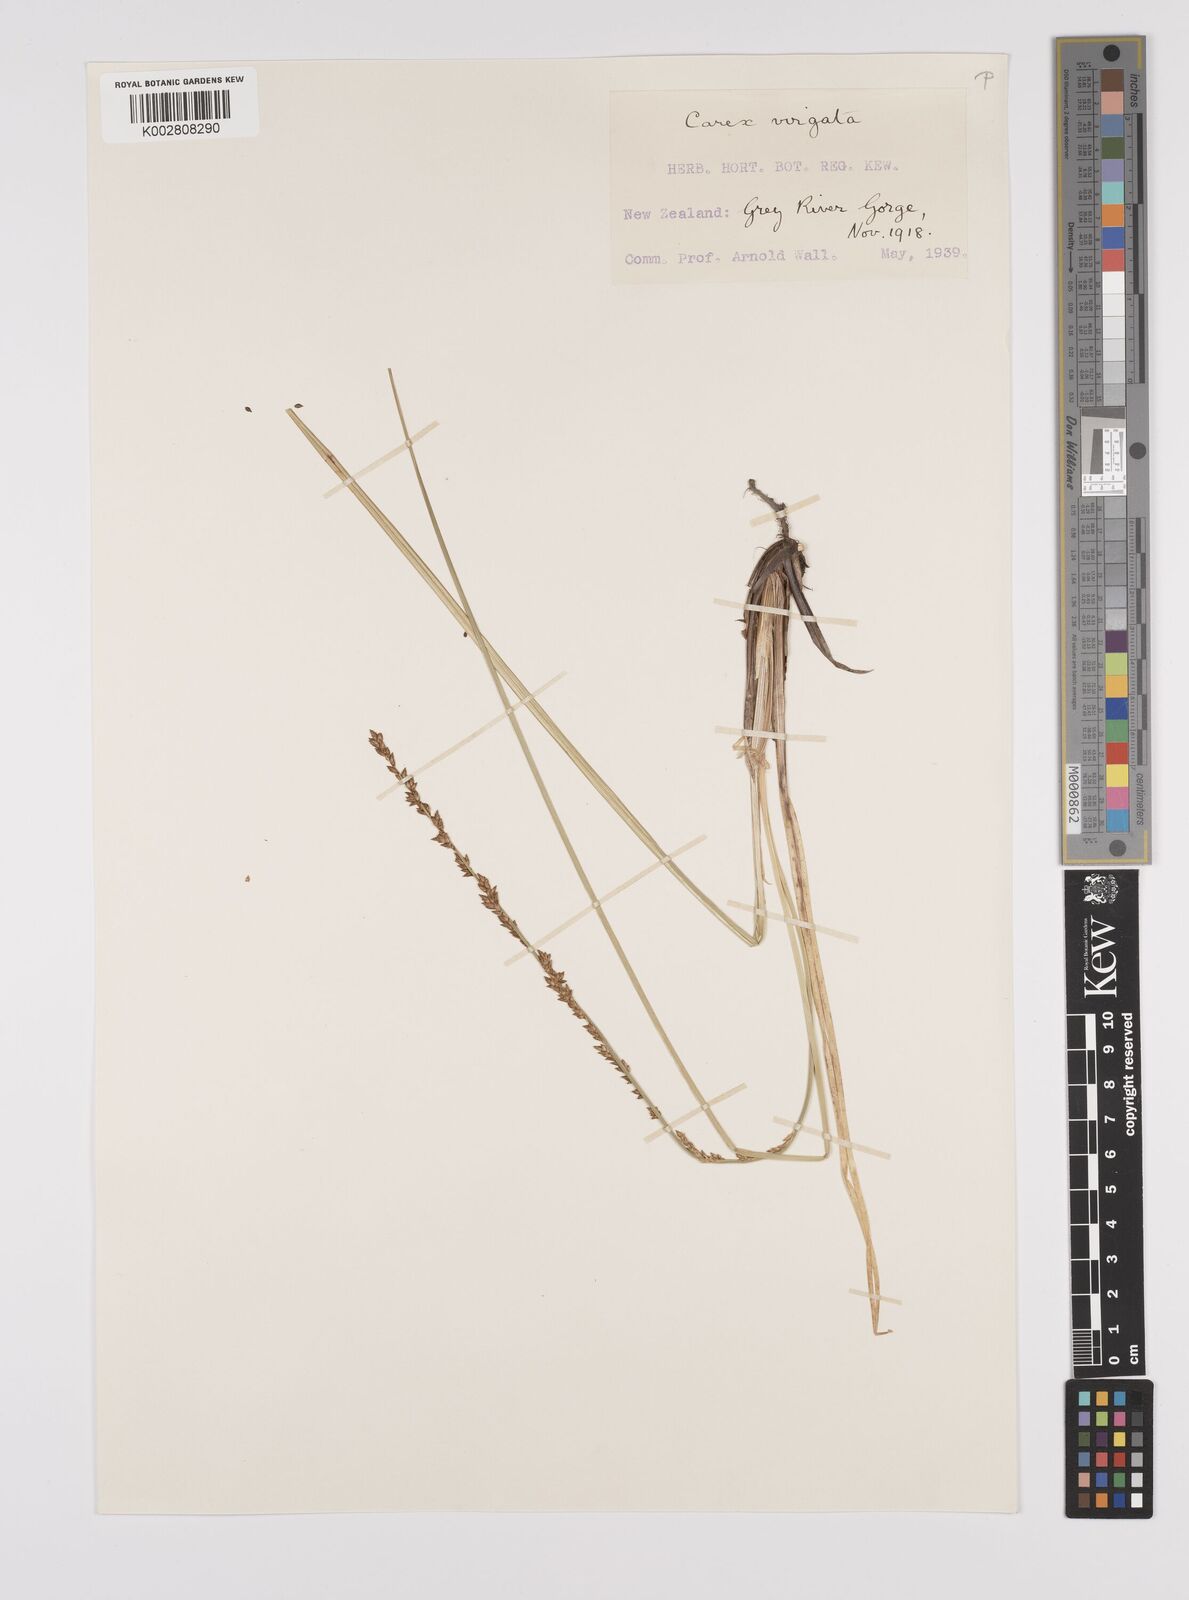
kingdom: Plantae
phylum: Tracheophyta
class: Liliopsida
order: Poales
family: Cyperaceae
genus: Carex
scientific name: Carex appressa
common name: Tussock sedge
